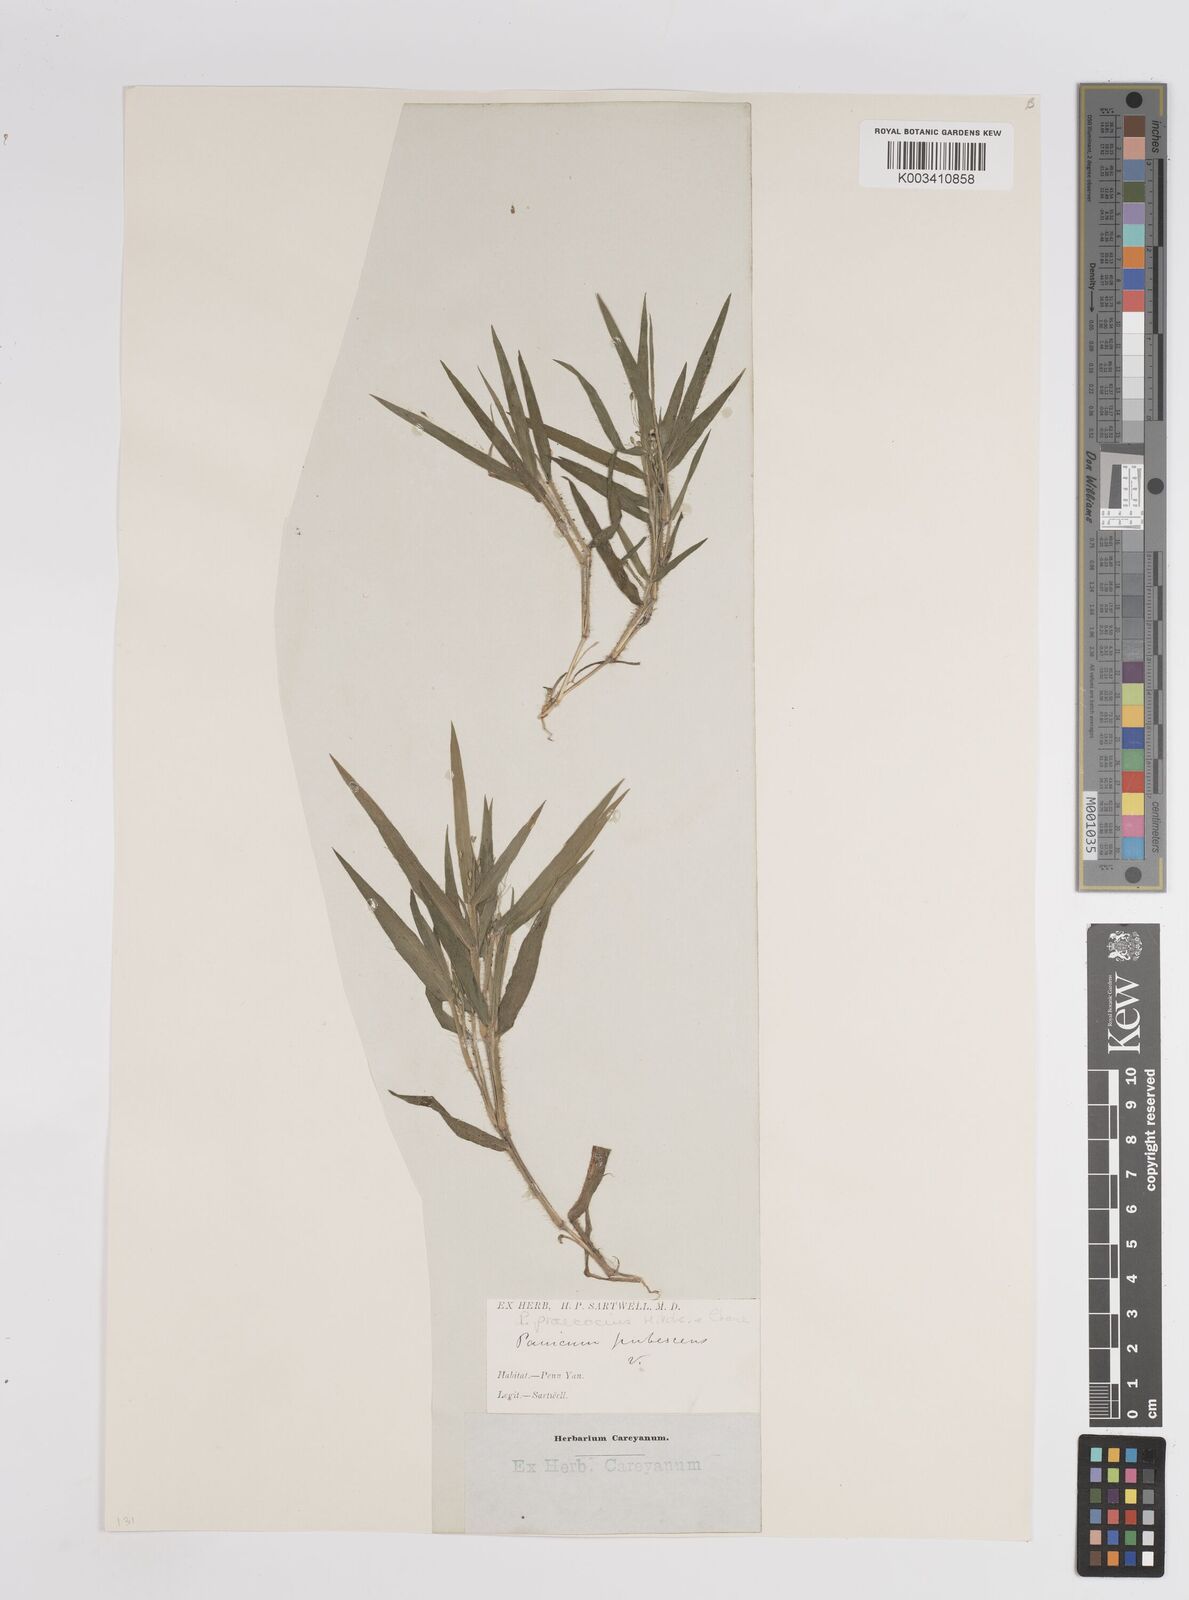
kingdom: Plantae
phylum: Tracheophyta
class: Liliopsida
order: Poales
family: Poaceae
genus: Dichanthelium
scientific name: Dichanthelium praecocius
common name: Early-branching panicgrass
